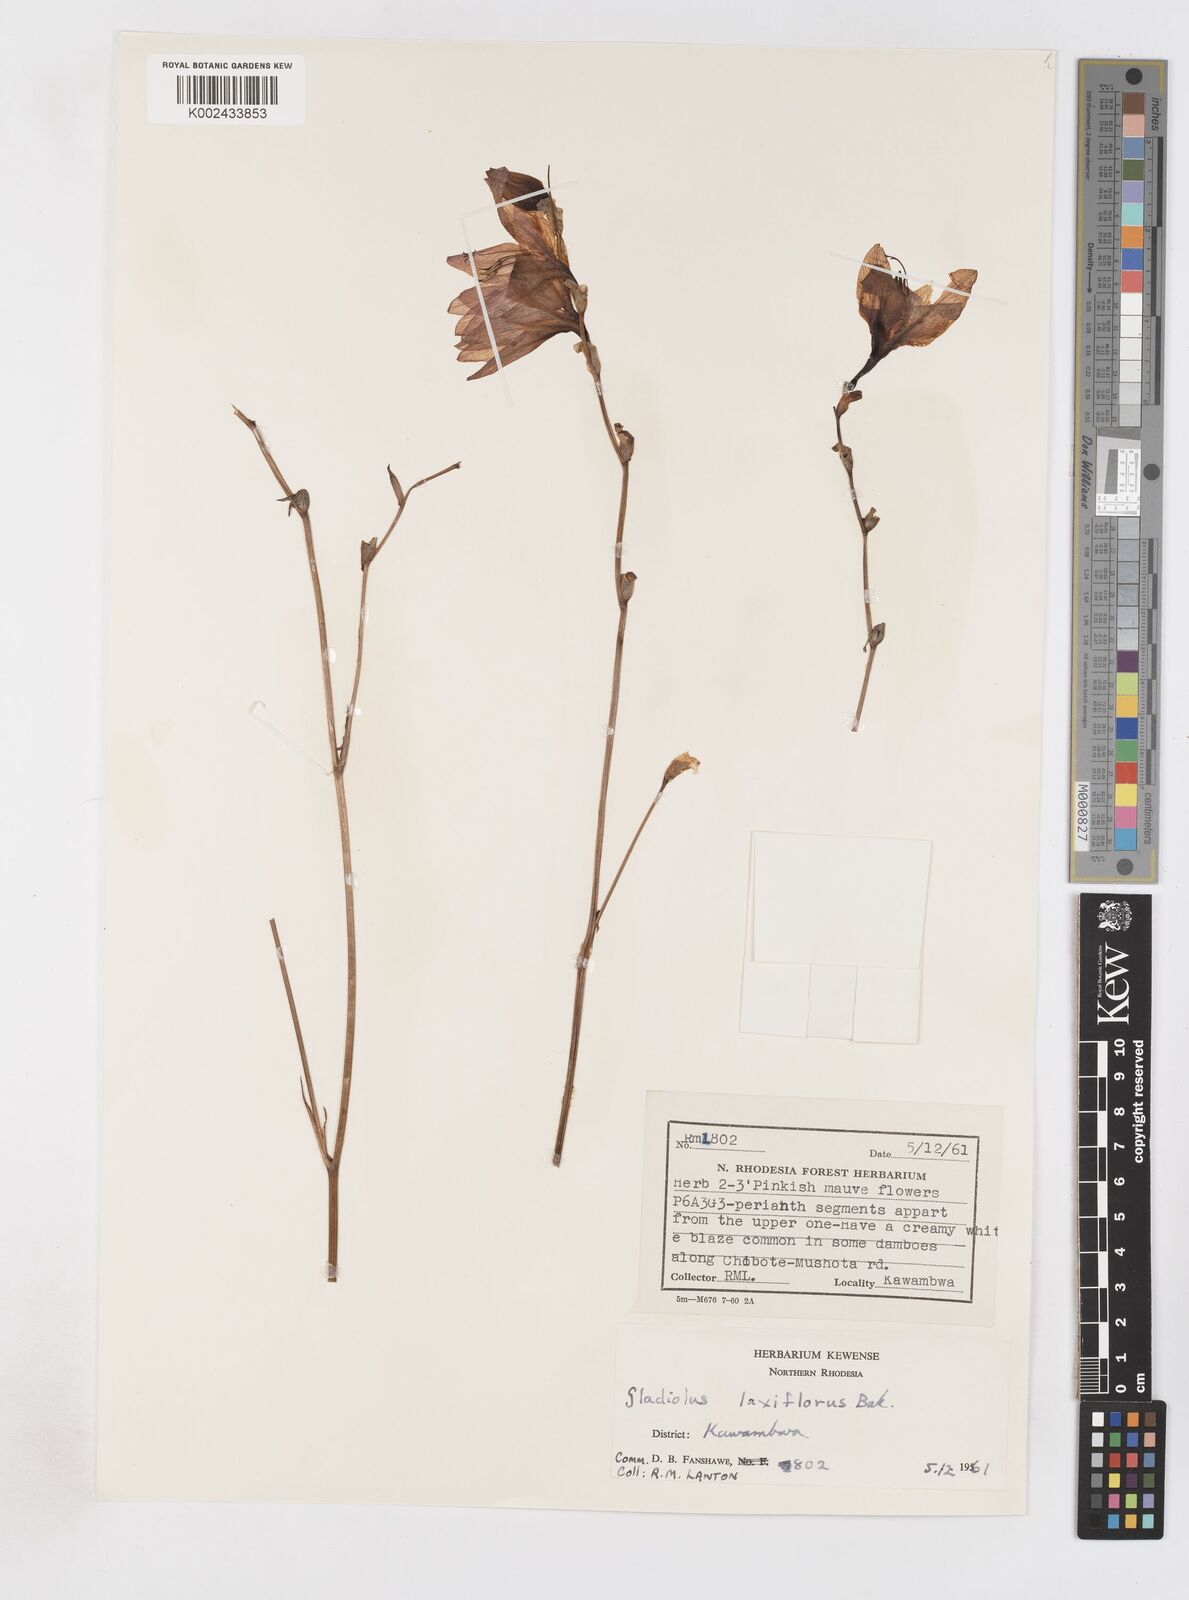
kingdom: Plantae
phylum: Tracheophyta
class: Liliopsida
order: Asparagales
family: Iridaceae
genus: Gladiolus
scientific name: Gladiolus laxiflorus
